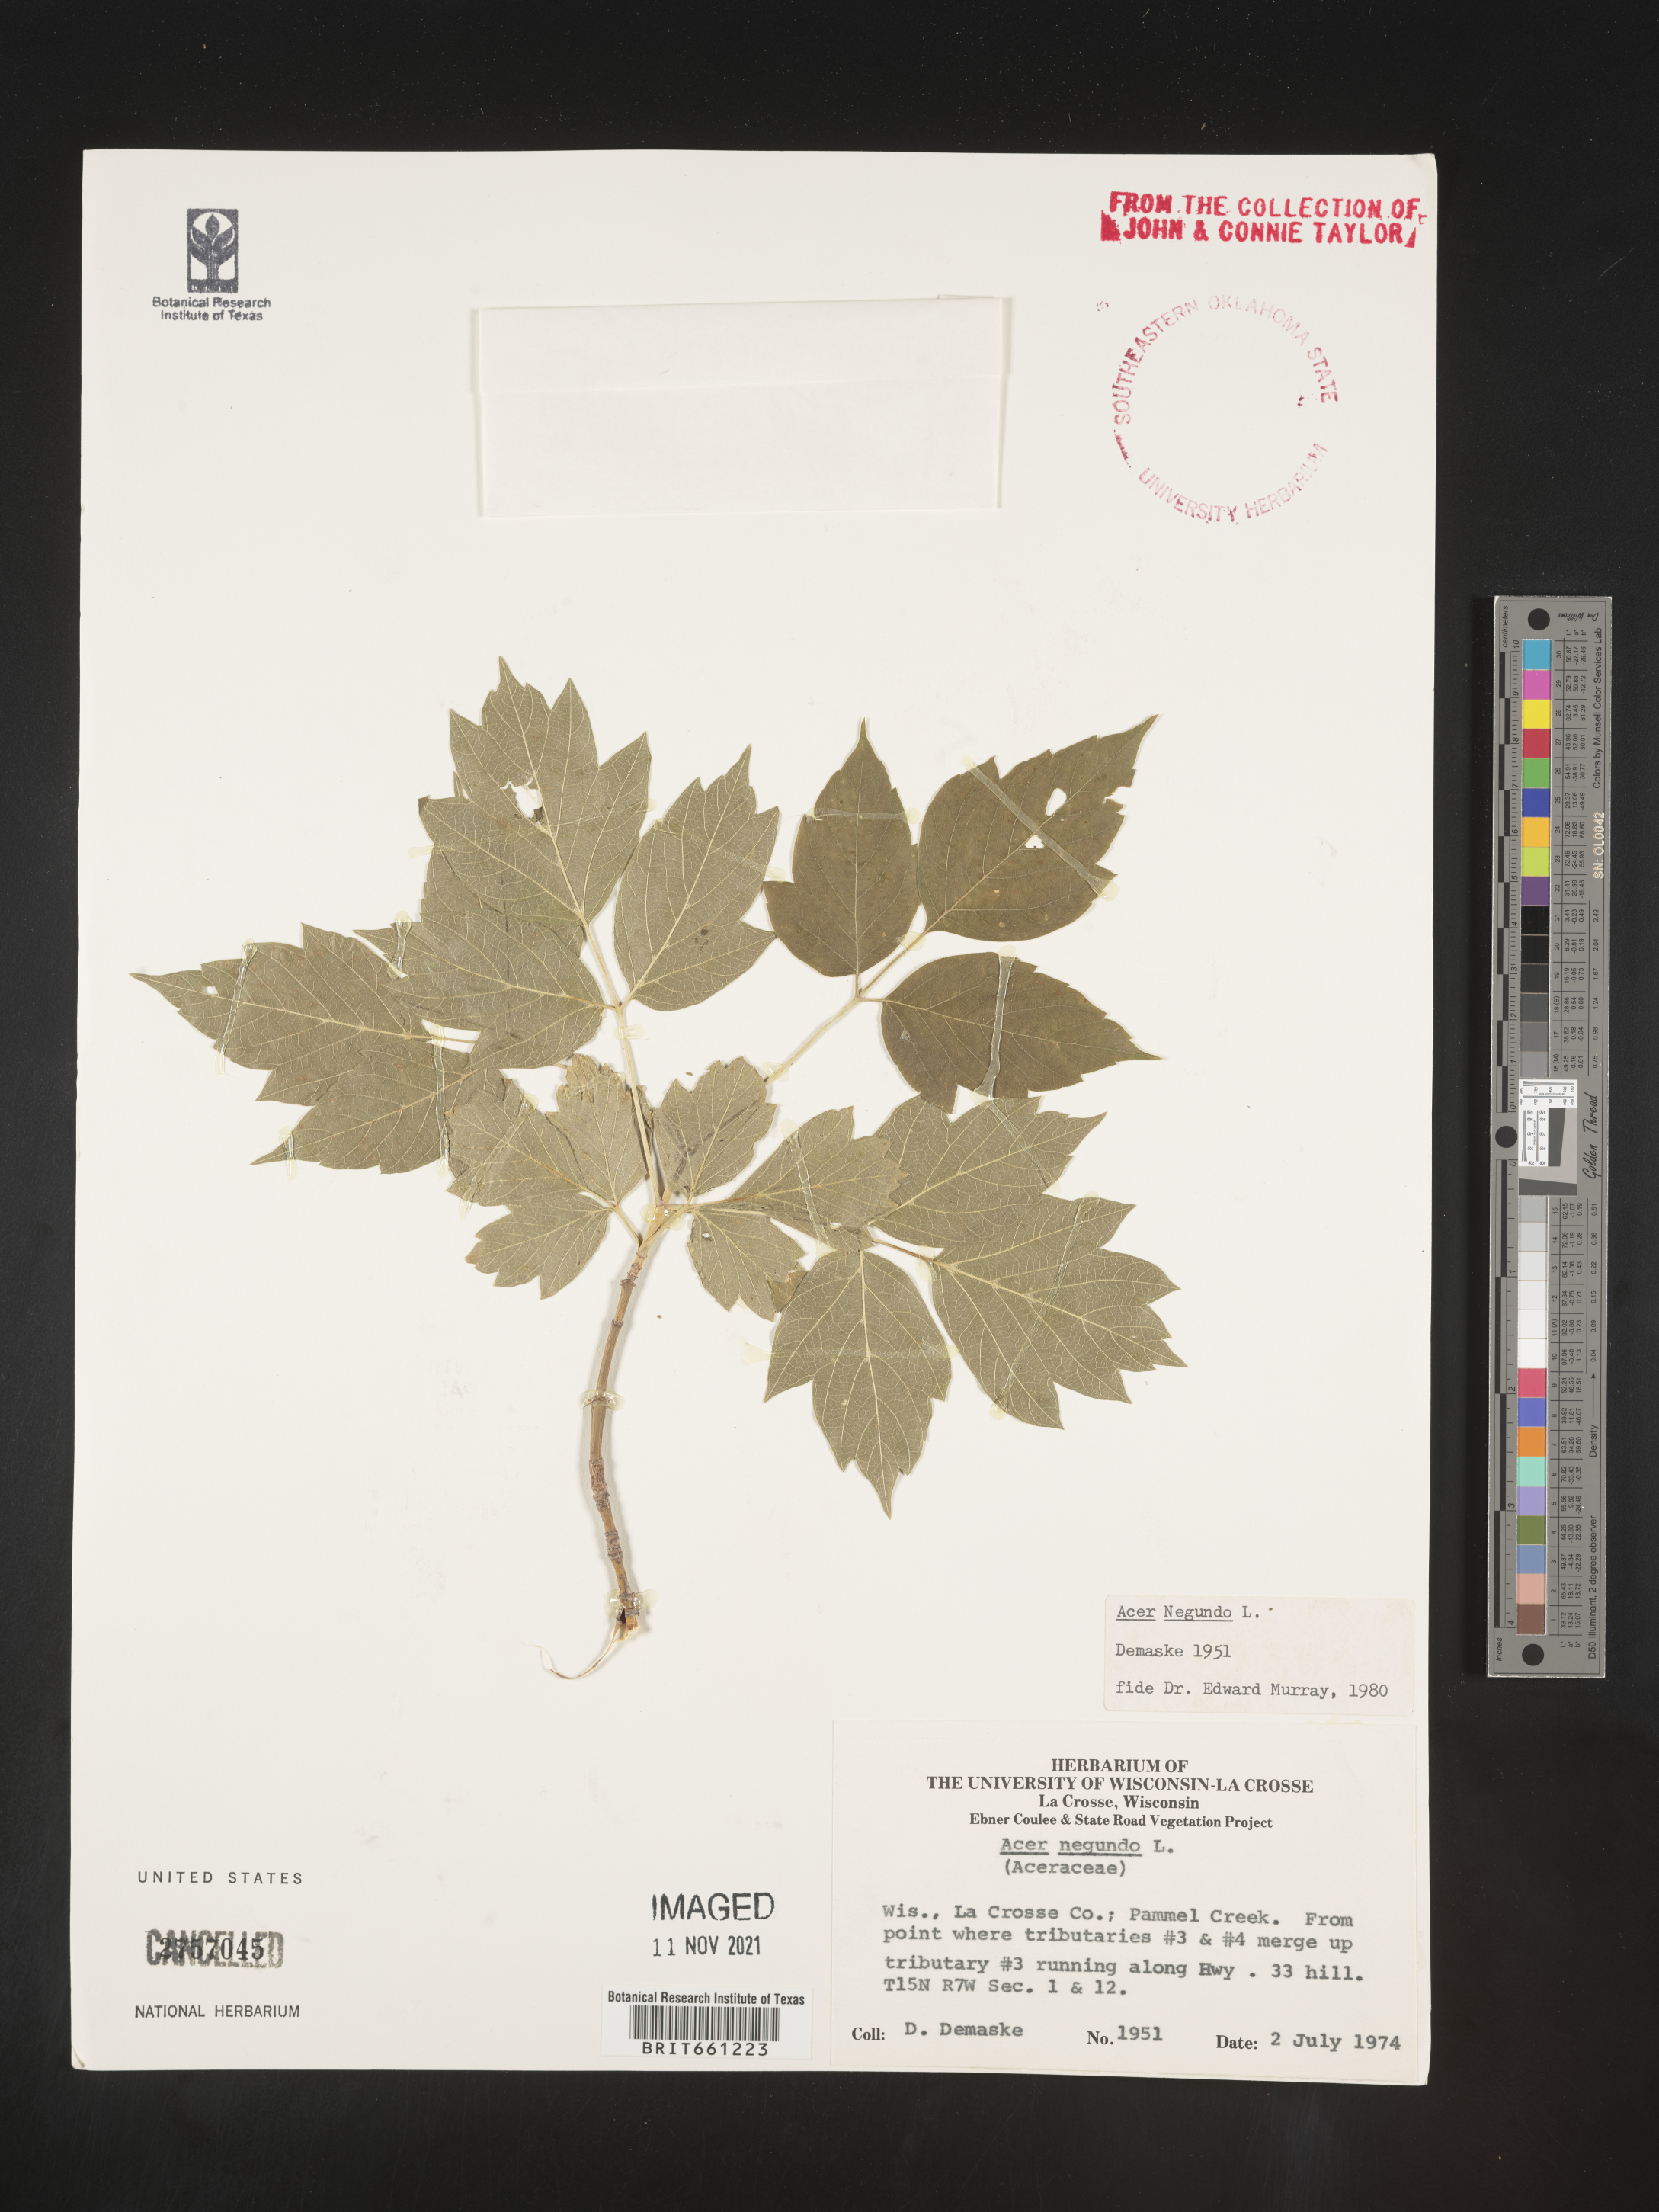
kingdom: Plantae
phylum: Tracheophyta
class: Magnoliopsida
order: Sapindales
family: Sapindaceae
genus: Acer
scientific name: Acer negundo
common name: Ashleaf maple
